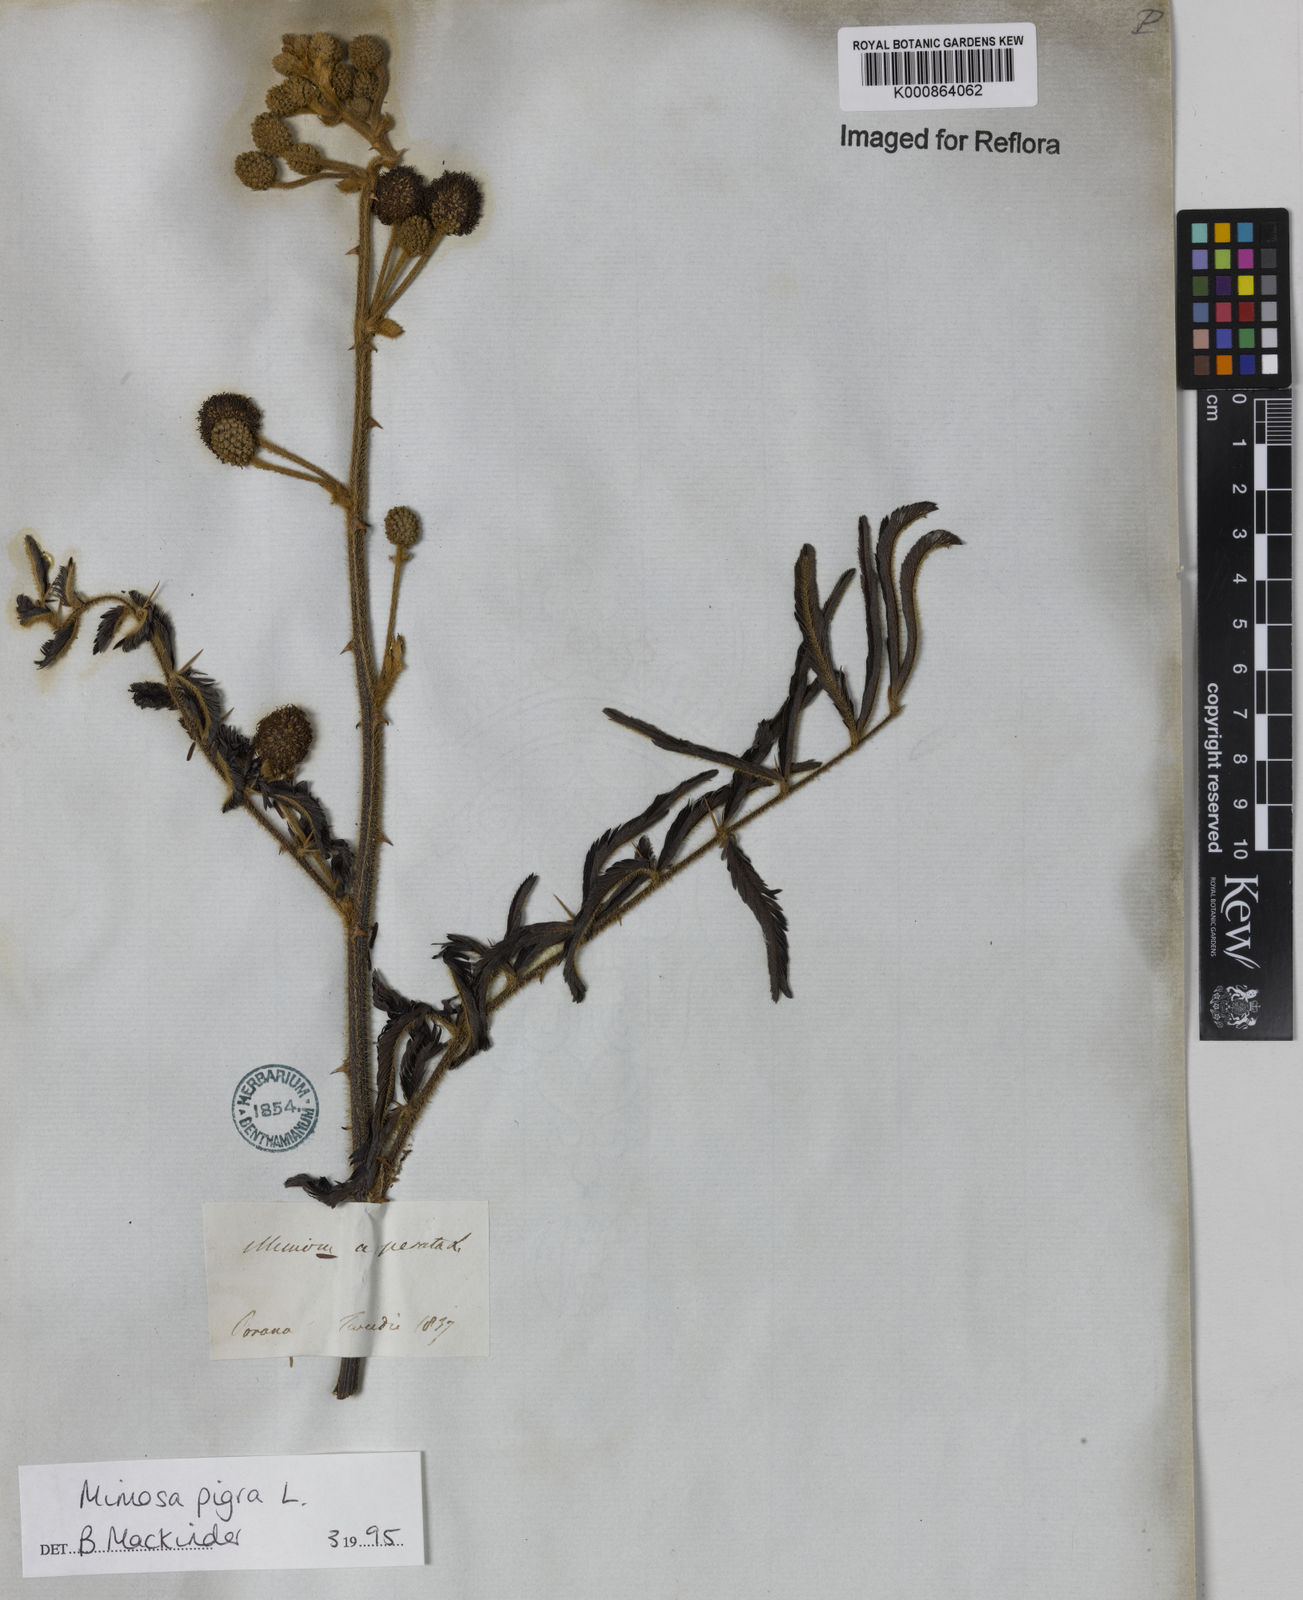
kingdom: Plantae
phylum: Tracheophyta
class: Magnoliopsida
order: Fabales
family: Fabaceae
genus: Mimosa
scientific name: Mimosa pigra
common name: Black mimosa
